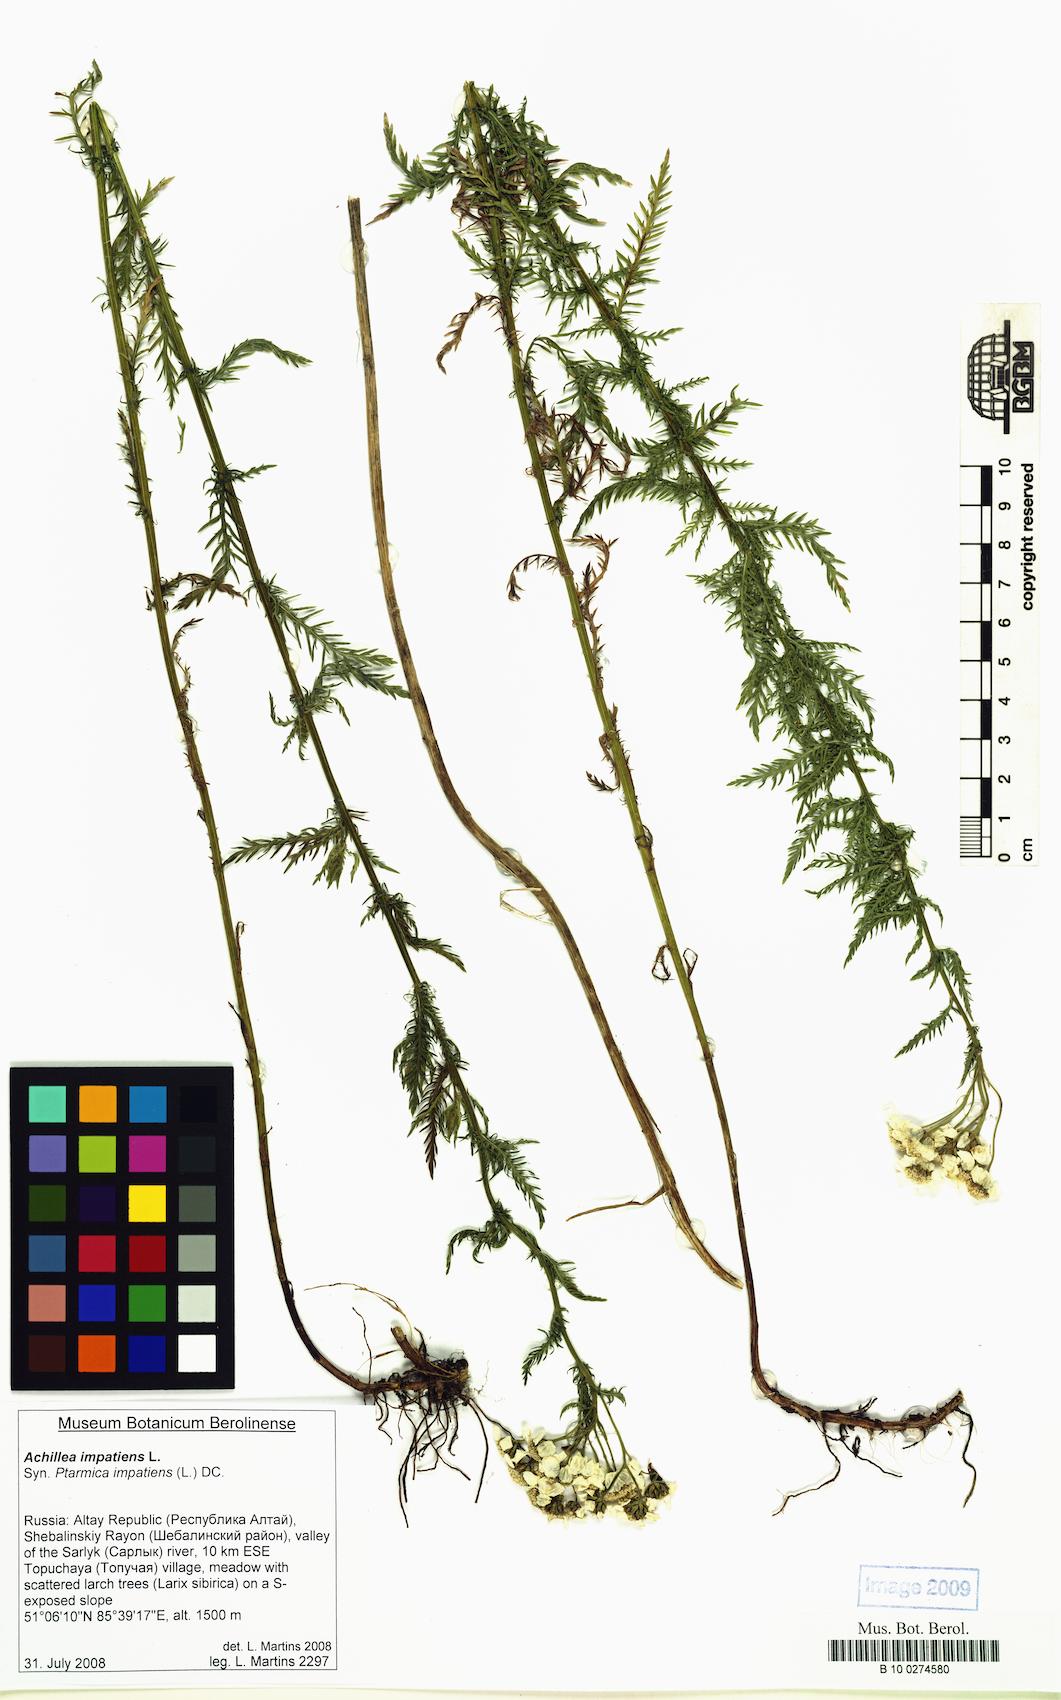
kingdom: Plantae
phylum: Tracheophyta
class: Magnoliopsida
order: Asterales
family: Asteraceae
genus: Achillea
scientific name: Achillea impatiens
